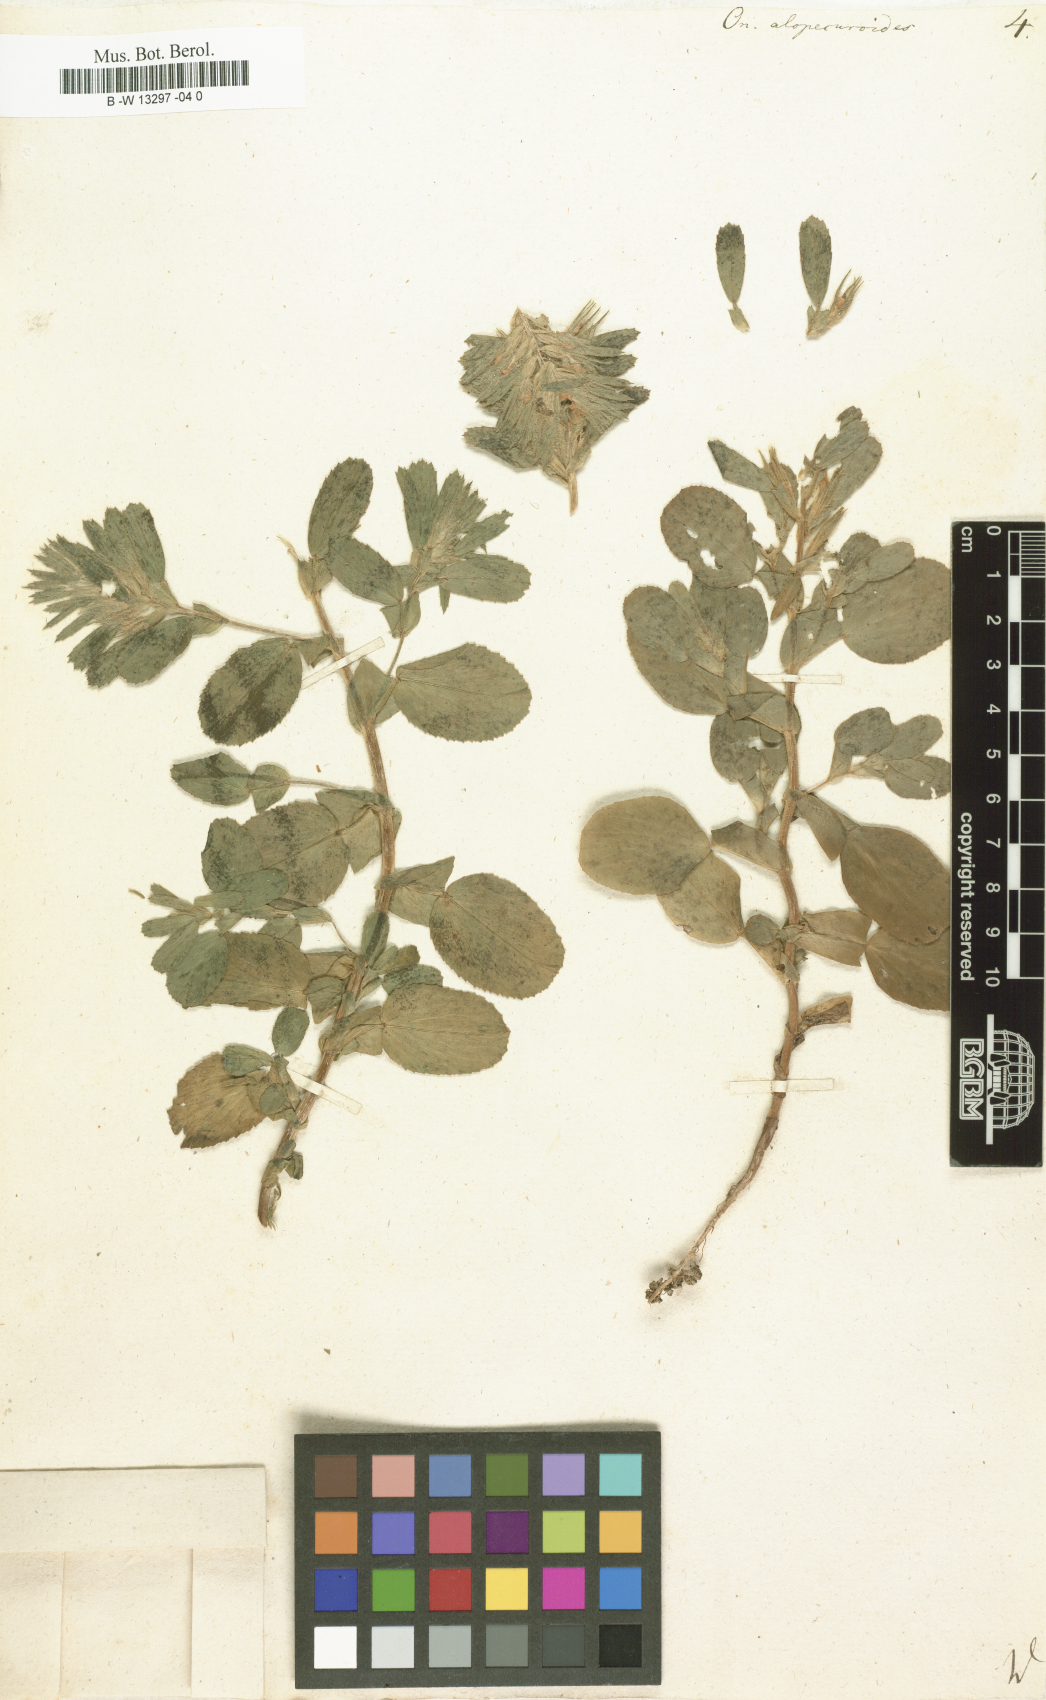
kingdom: Plantae
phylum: Tracheophyta
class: Magnoliopsida
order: Fabales
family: Fabaceae
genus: Ononis
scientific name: Ononis alopecuroides
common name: Salzmann's restharrow
